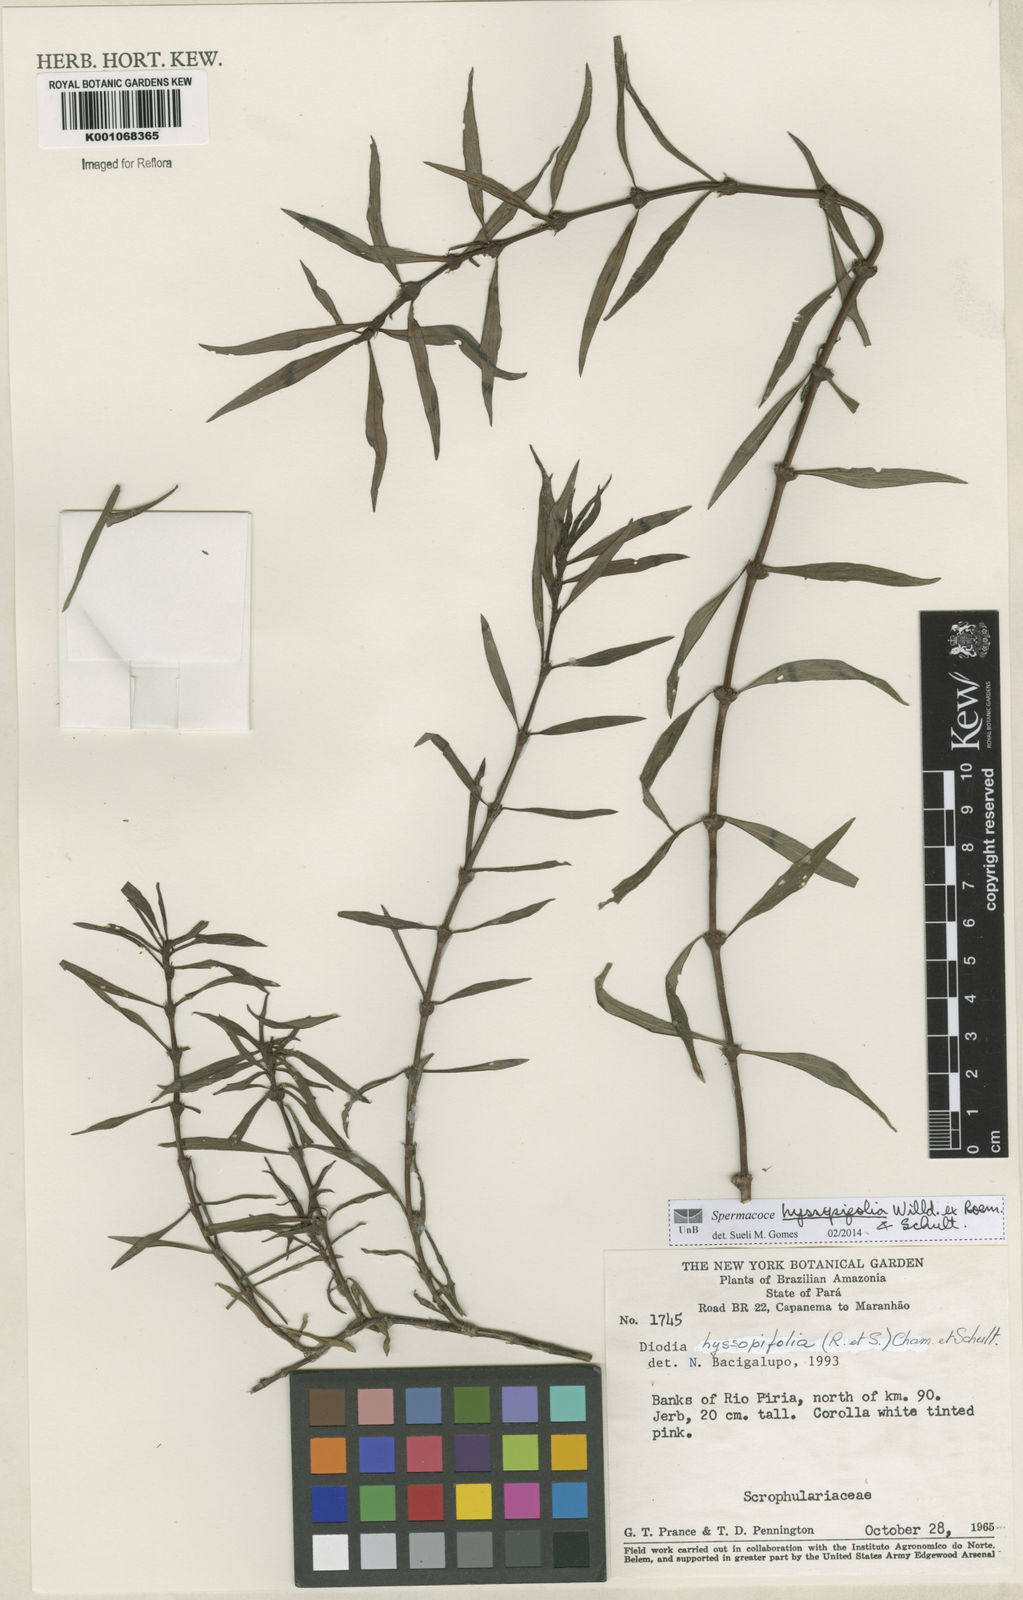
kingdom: Plantae
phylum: Tracheophyta
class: Magnoliopsida
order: Gentianales
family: Rubiaceae
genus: Spermacoce
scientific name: Spermacoce
